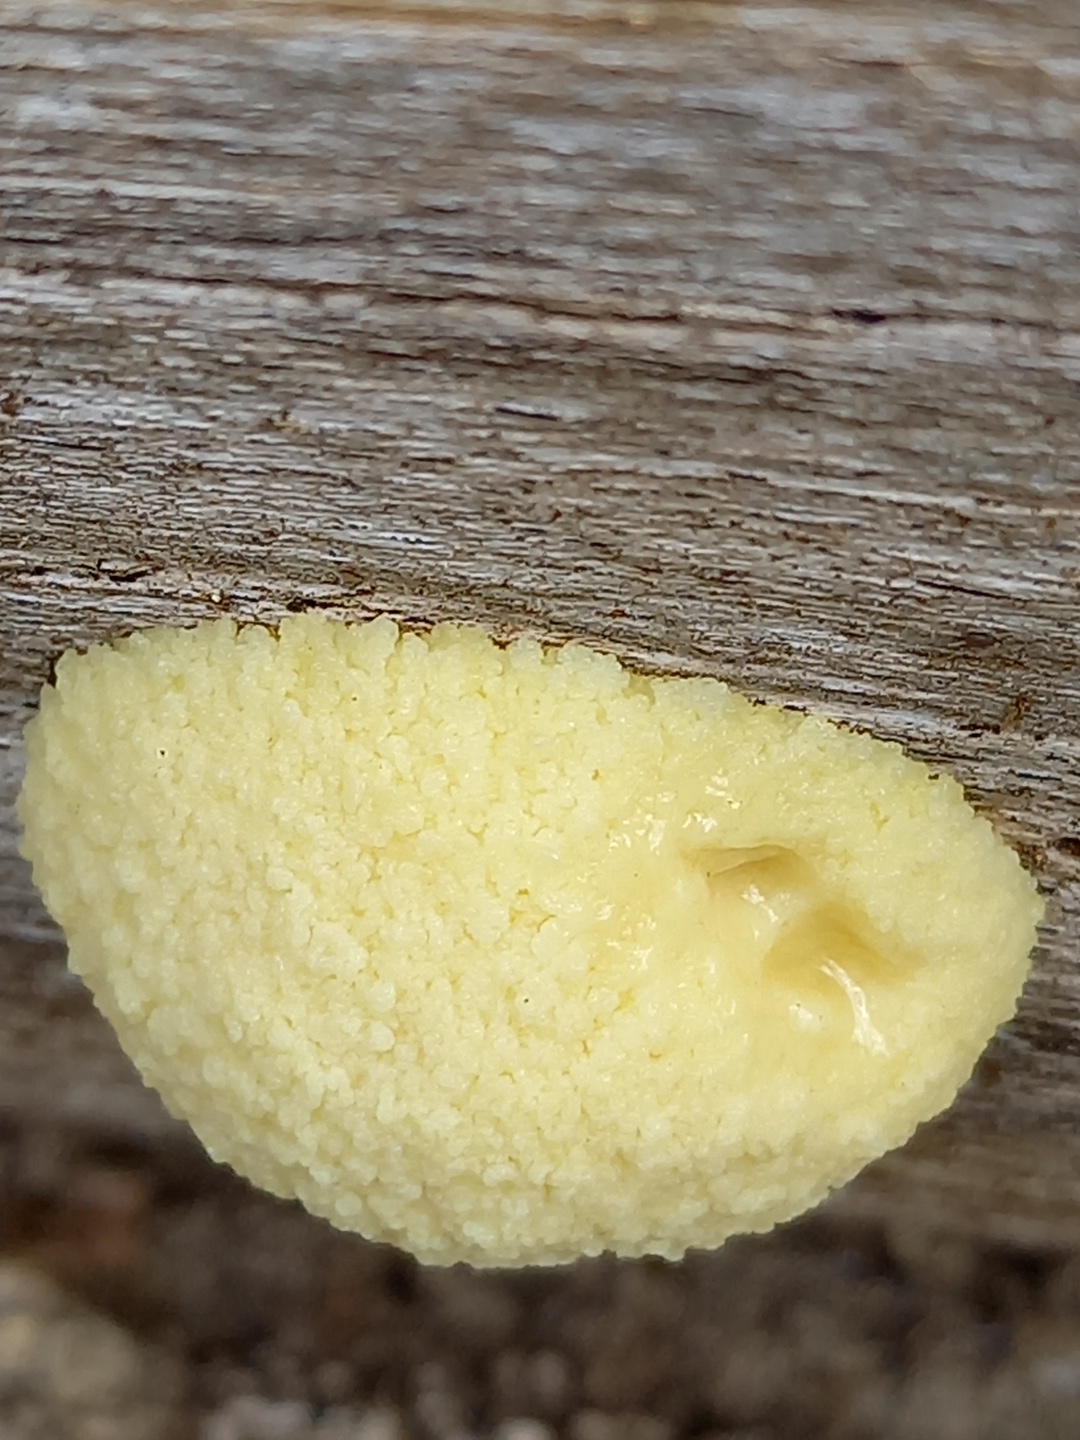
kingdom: Protozoa
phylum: Mycetozoa
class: Myxomycetes
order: Cribrariales
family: Tubiferaceae
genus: Reticularia
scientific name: Reticularia lycoperdon
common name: skinnende støvpude
